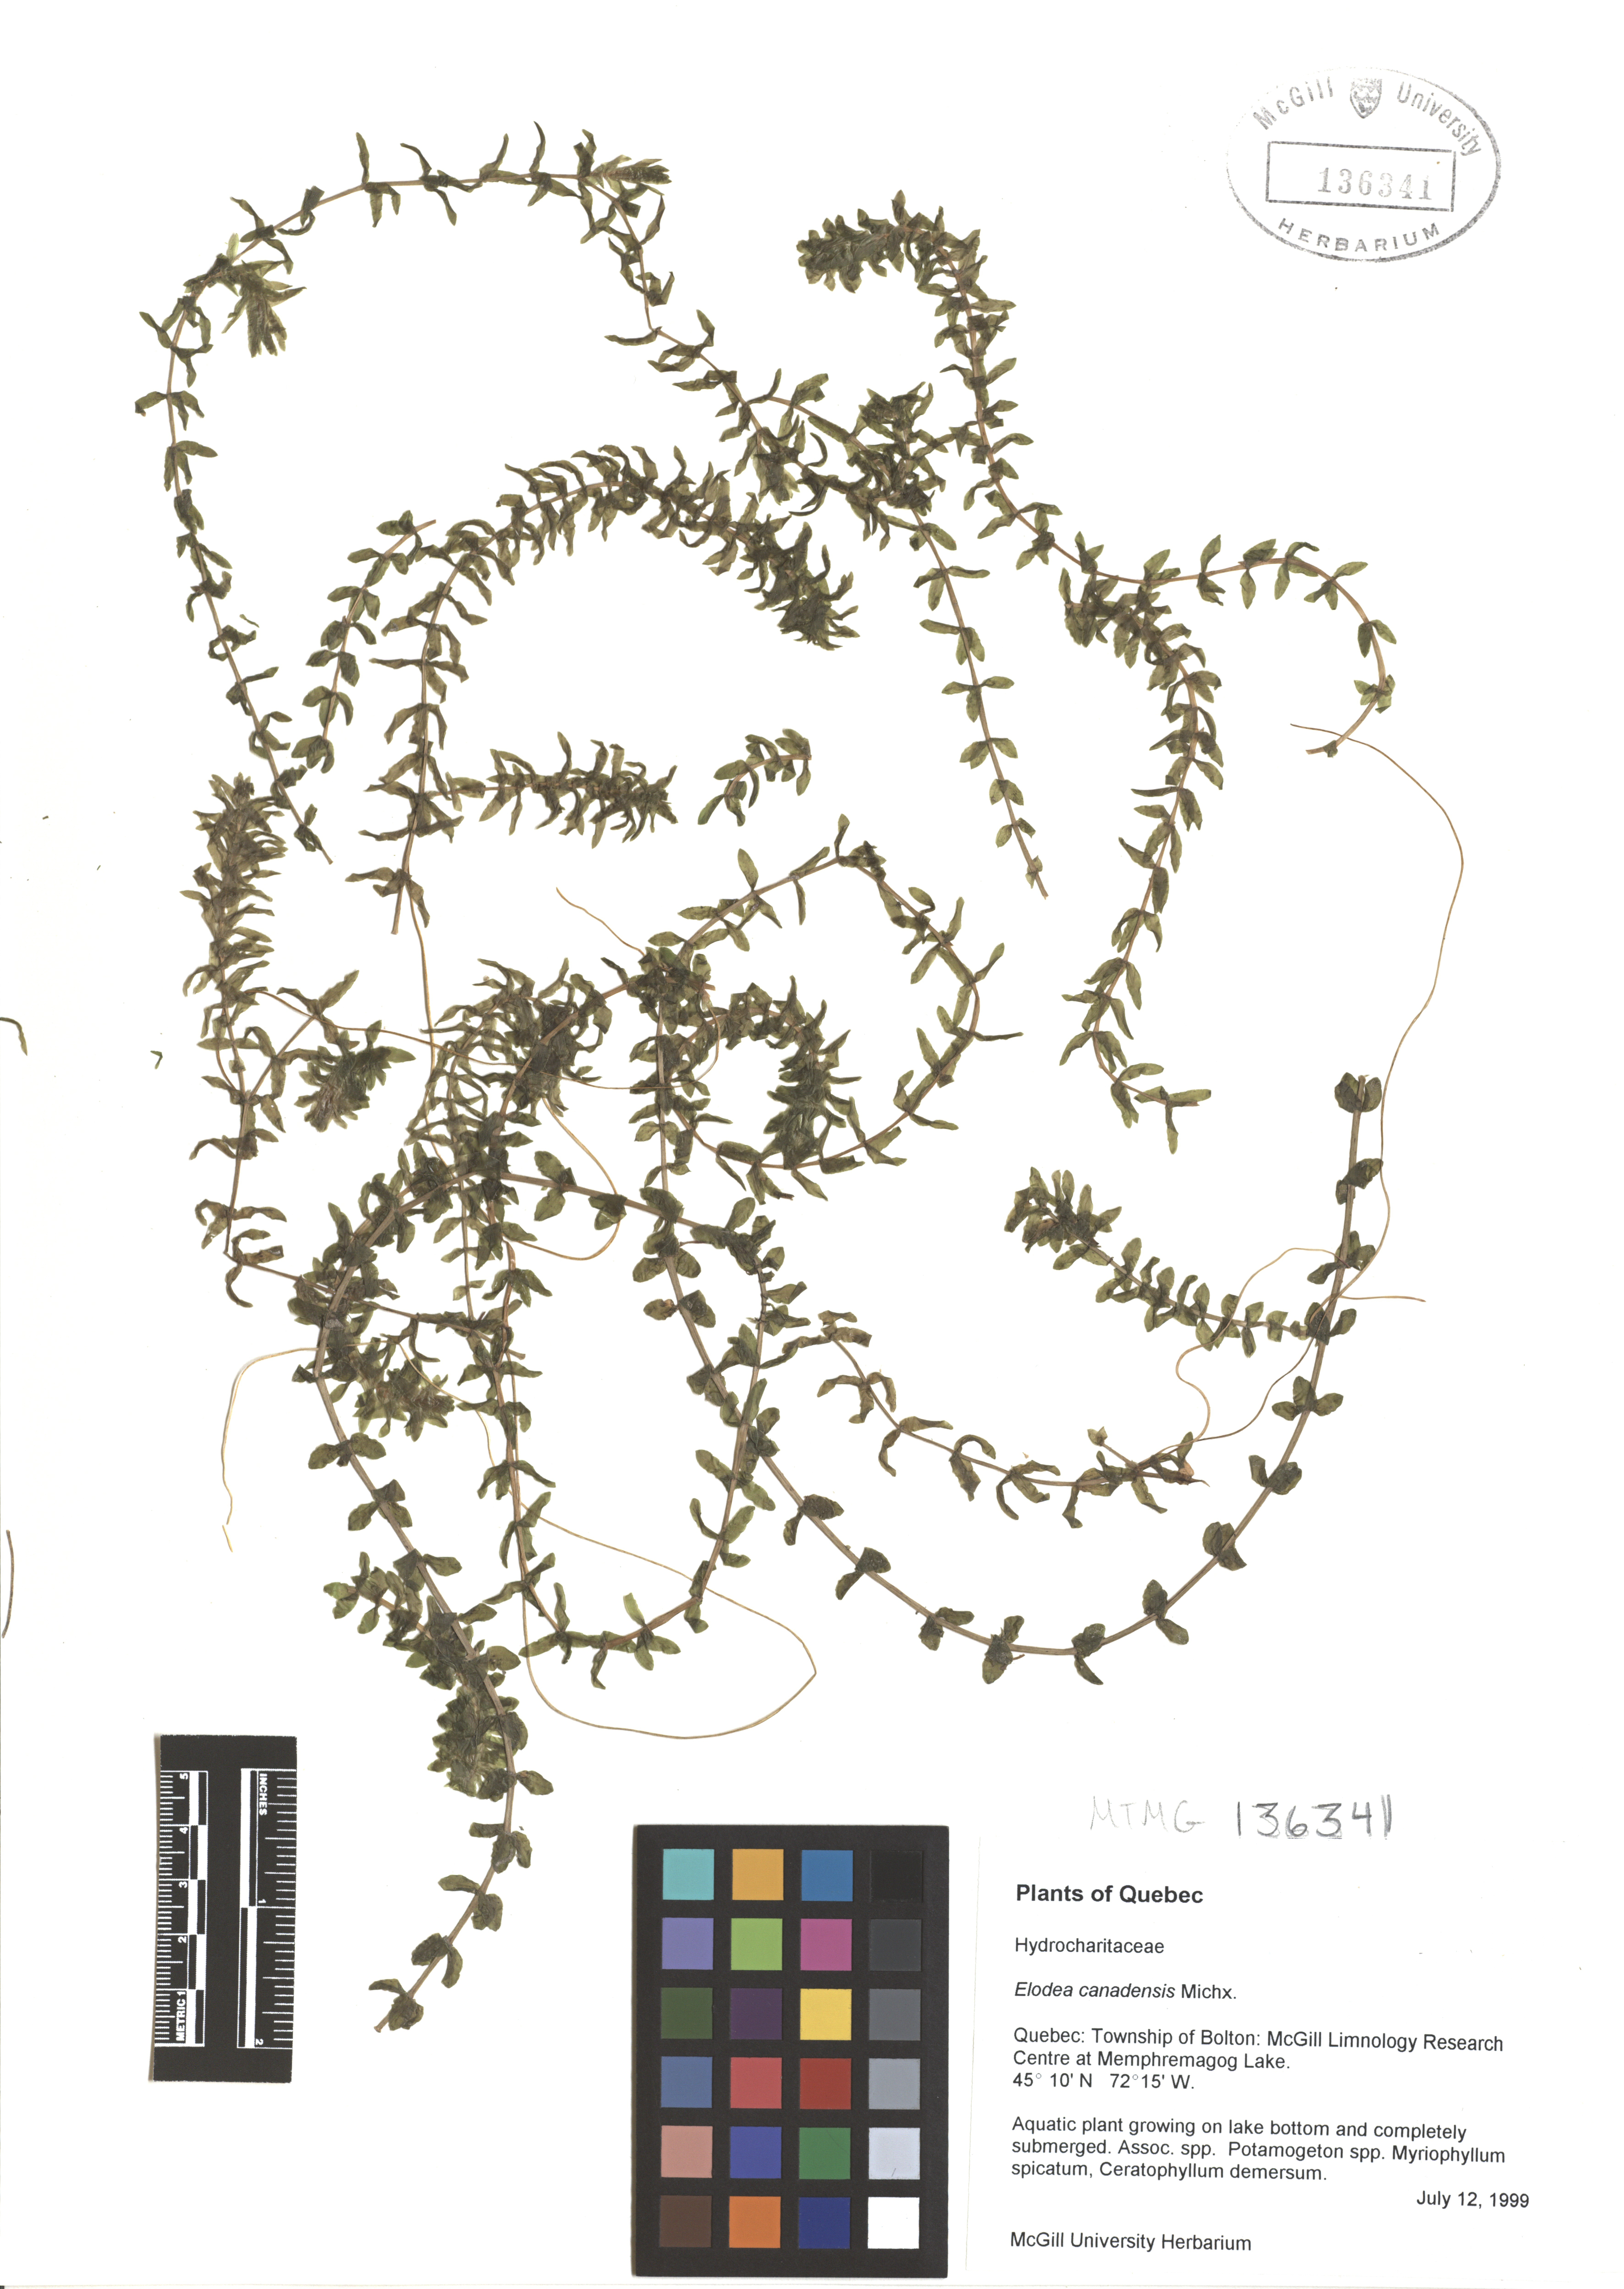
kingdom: Plantae
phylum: Tracheophyta
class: Liliopsida
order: Alismatales
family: Hydrocharitaceae
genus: Elodea
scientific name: Elodea canadensis
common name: Canadian waterweed
